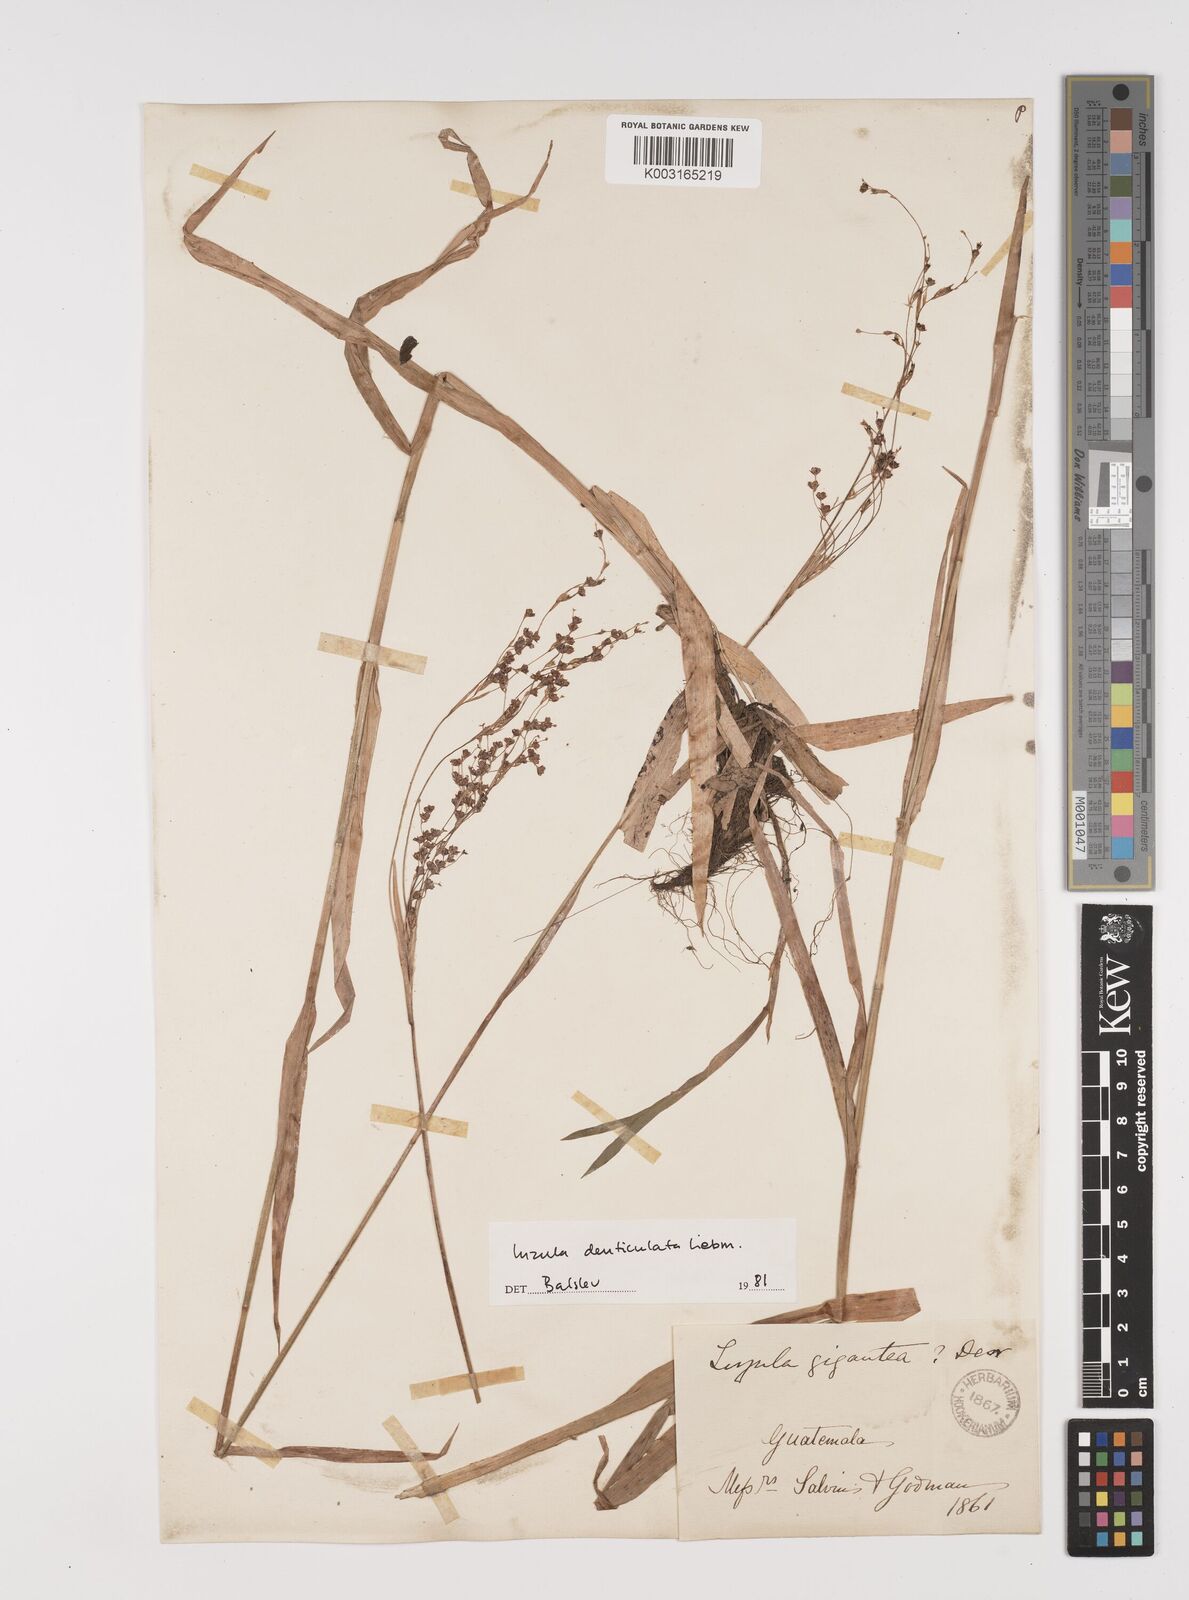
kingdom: Plantae
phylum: Tracheophyta
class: Liliopsida
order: Poales
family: Juncaceae
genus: Luzula
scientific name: Luzula gigantea
